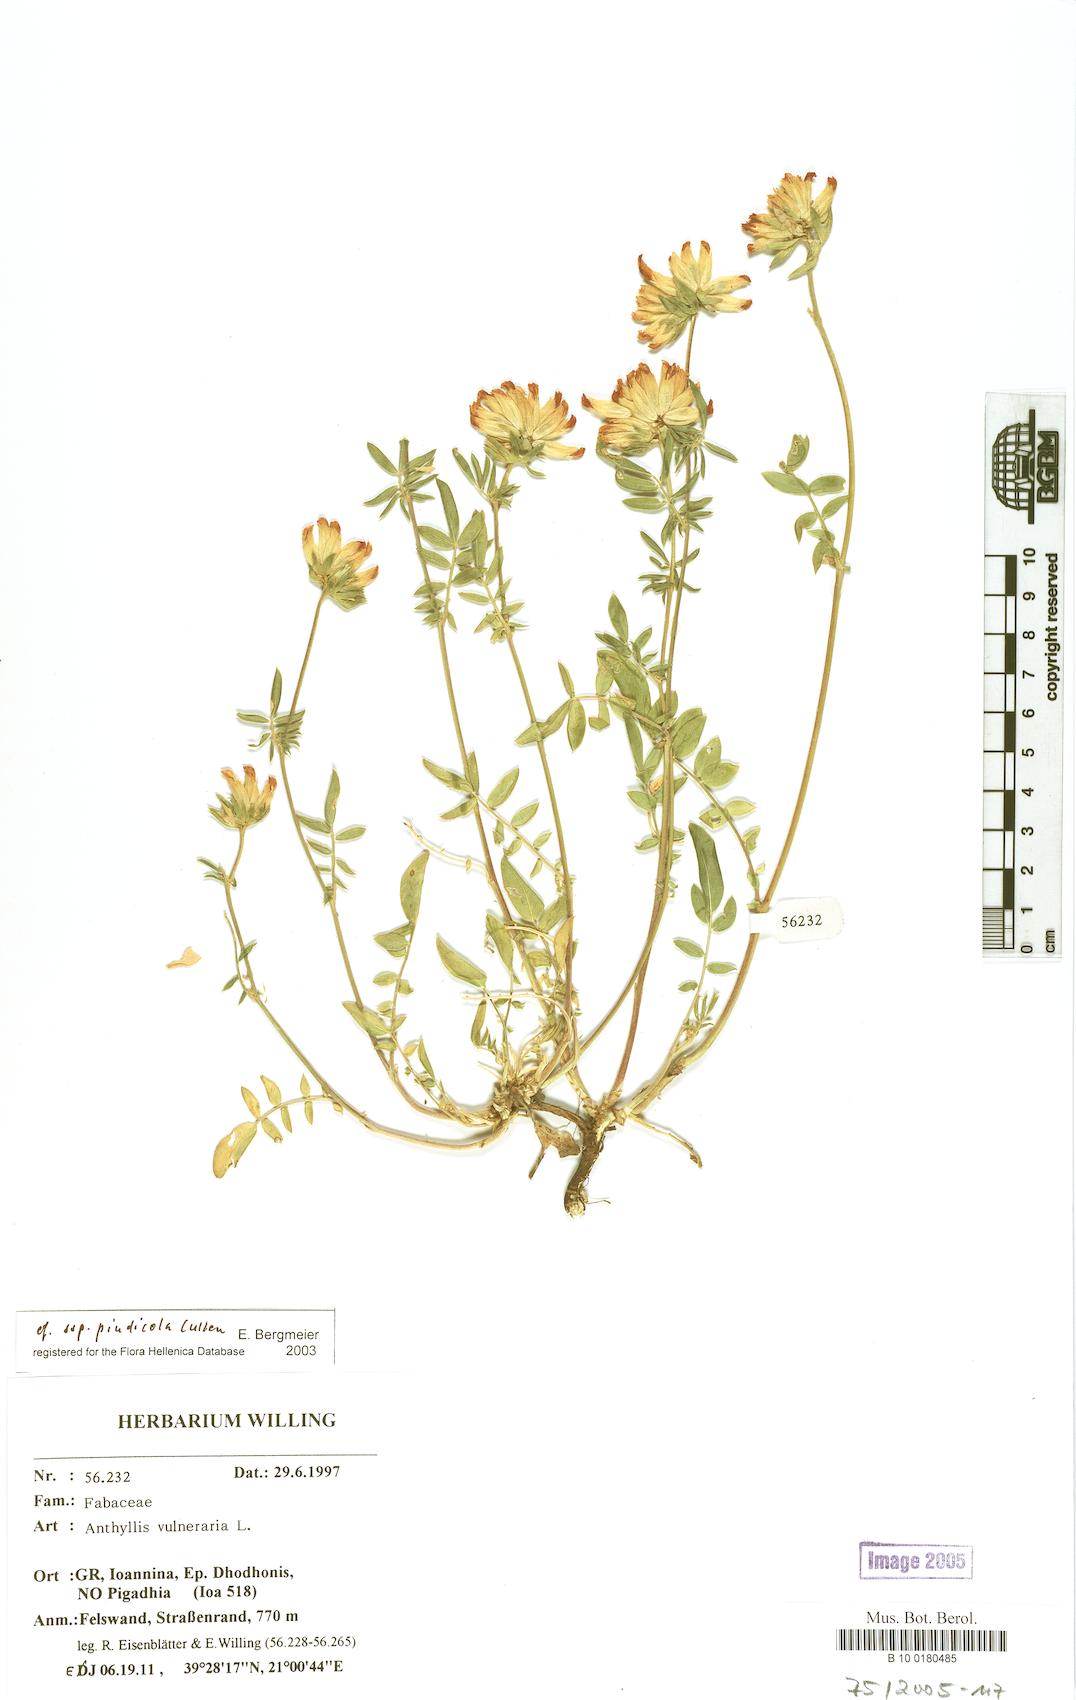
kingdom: Plantae
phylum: Tracheophyta
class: Magnoliopsida
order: Fabales
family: Fabaceae
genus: Anthyllis
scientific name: Anthyllis vulneraria
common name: Kidney vetch
